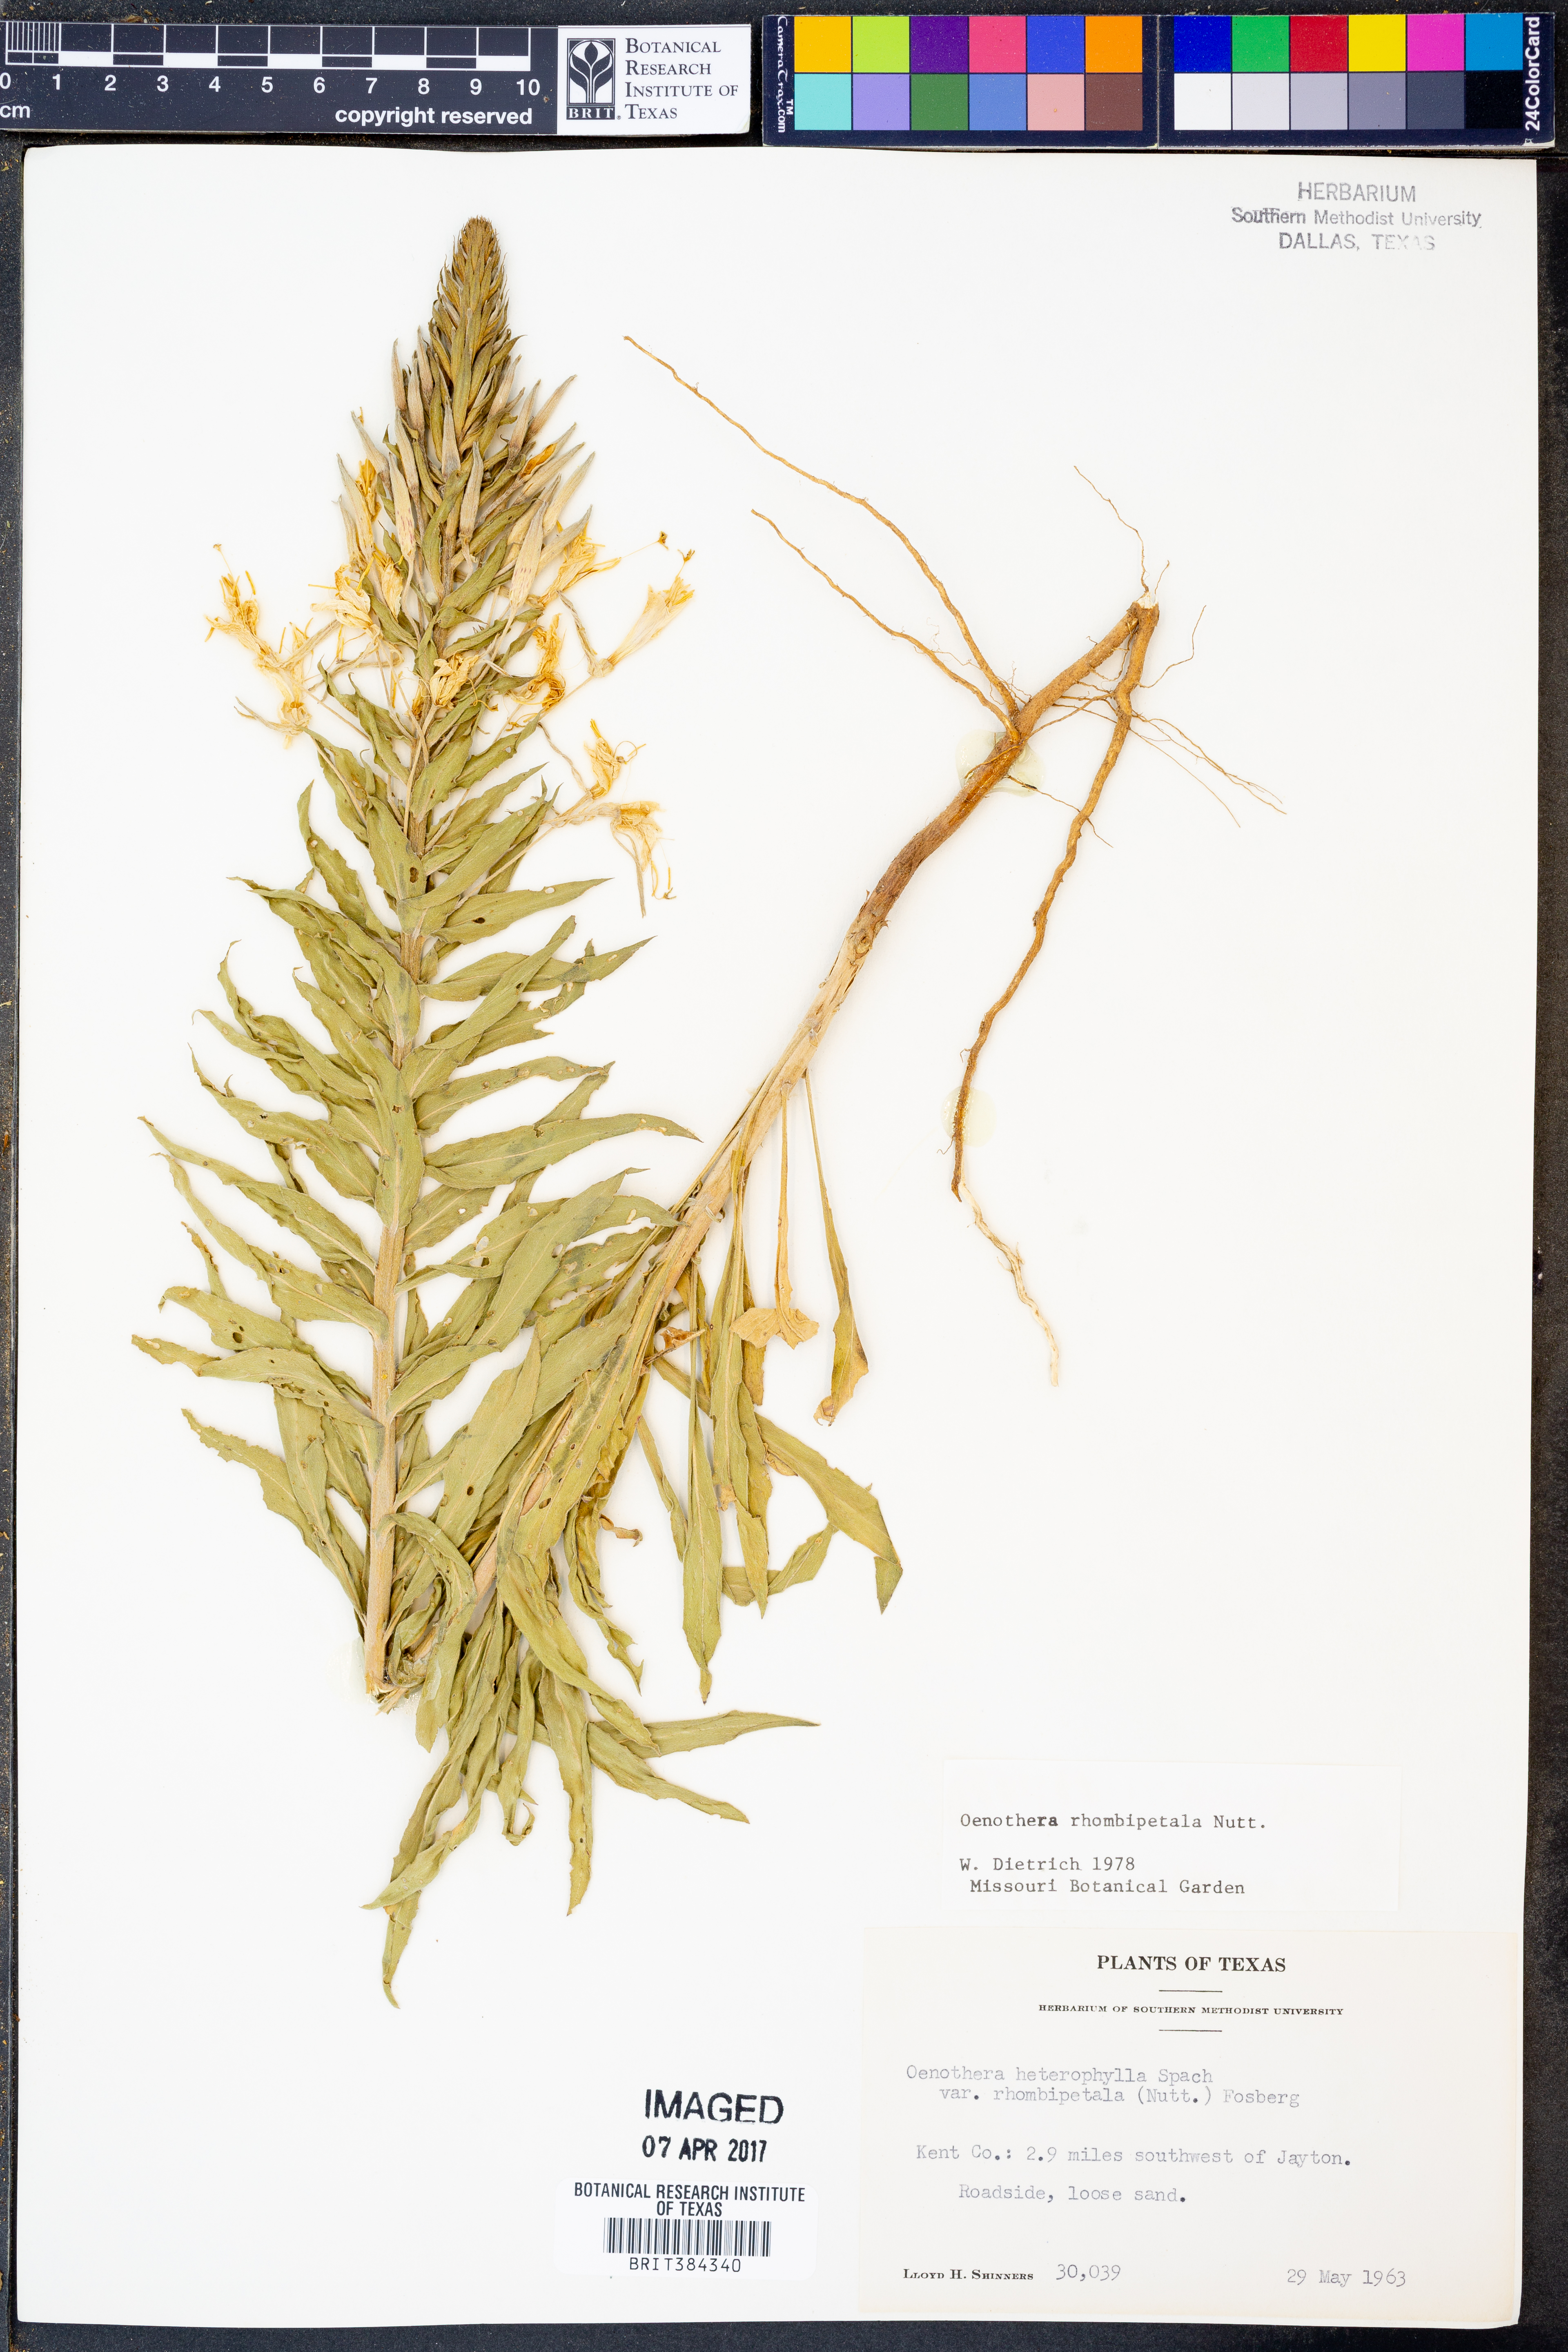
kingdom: Plantae
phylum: Tracheophyta
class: Magnoliopsida
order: Myrtales
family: Onagraceae
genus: Oenothera
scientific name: Oenothera rhombipetala
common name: Four-points evening-primrose
